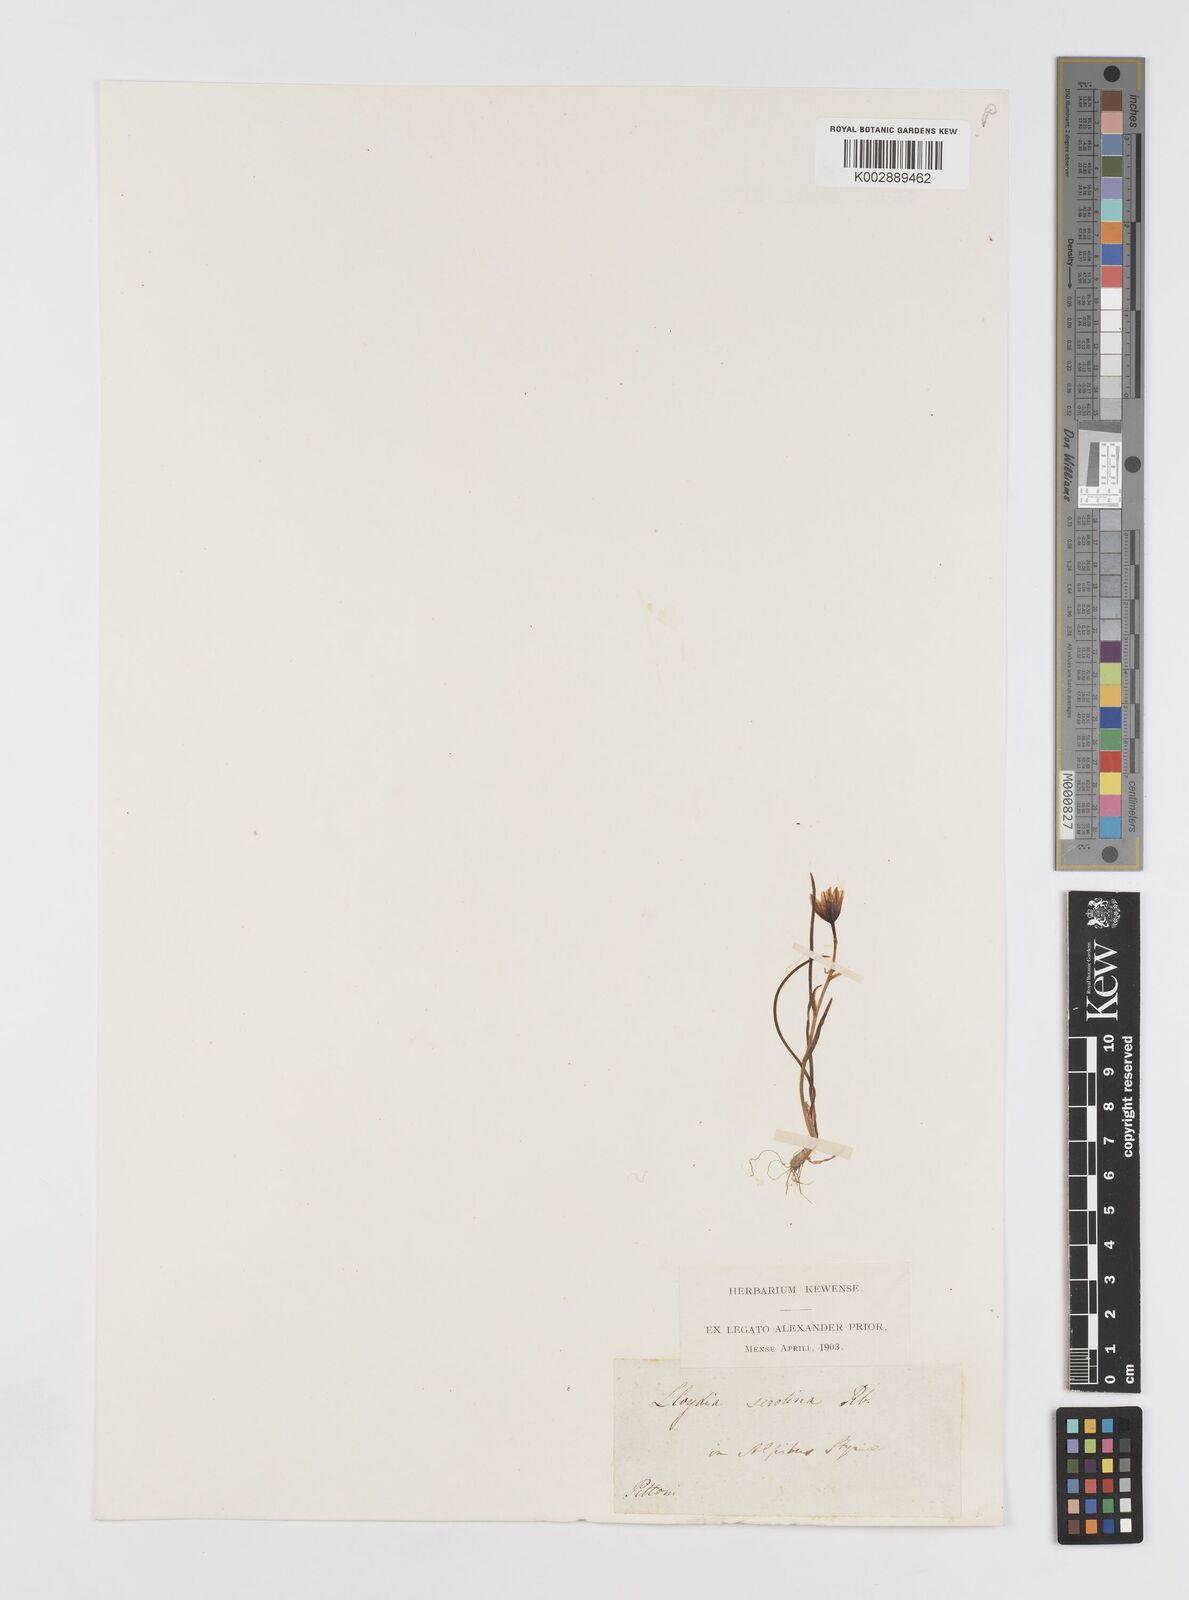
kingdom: Plantae
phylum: Tracheophyta
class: Liliopsida
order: Liliales
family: Liliaceae
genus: Gagea
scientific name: Gagea
